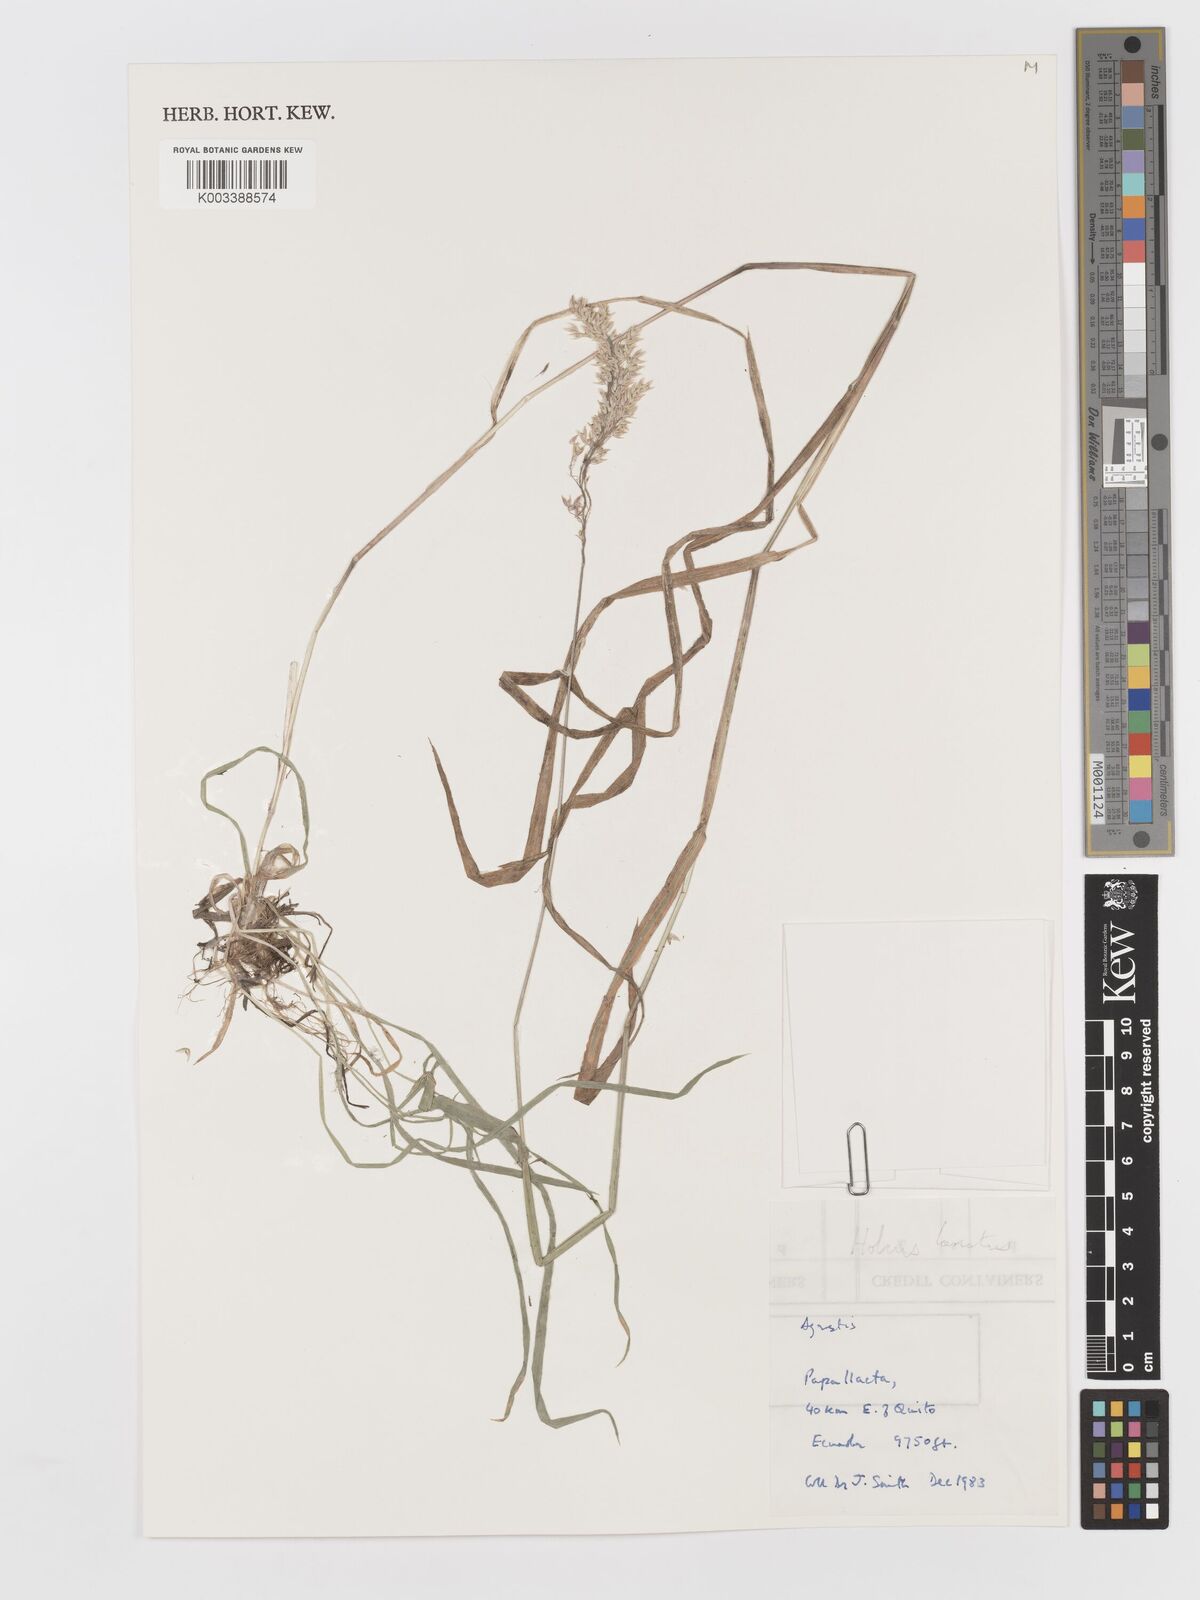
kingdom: Plantae
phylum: Tracheophyta
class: Liliopsida
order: Poales
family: Poaceae
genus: Holcus
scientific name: Holcus lanatus
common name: Yorkshire-fog
